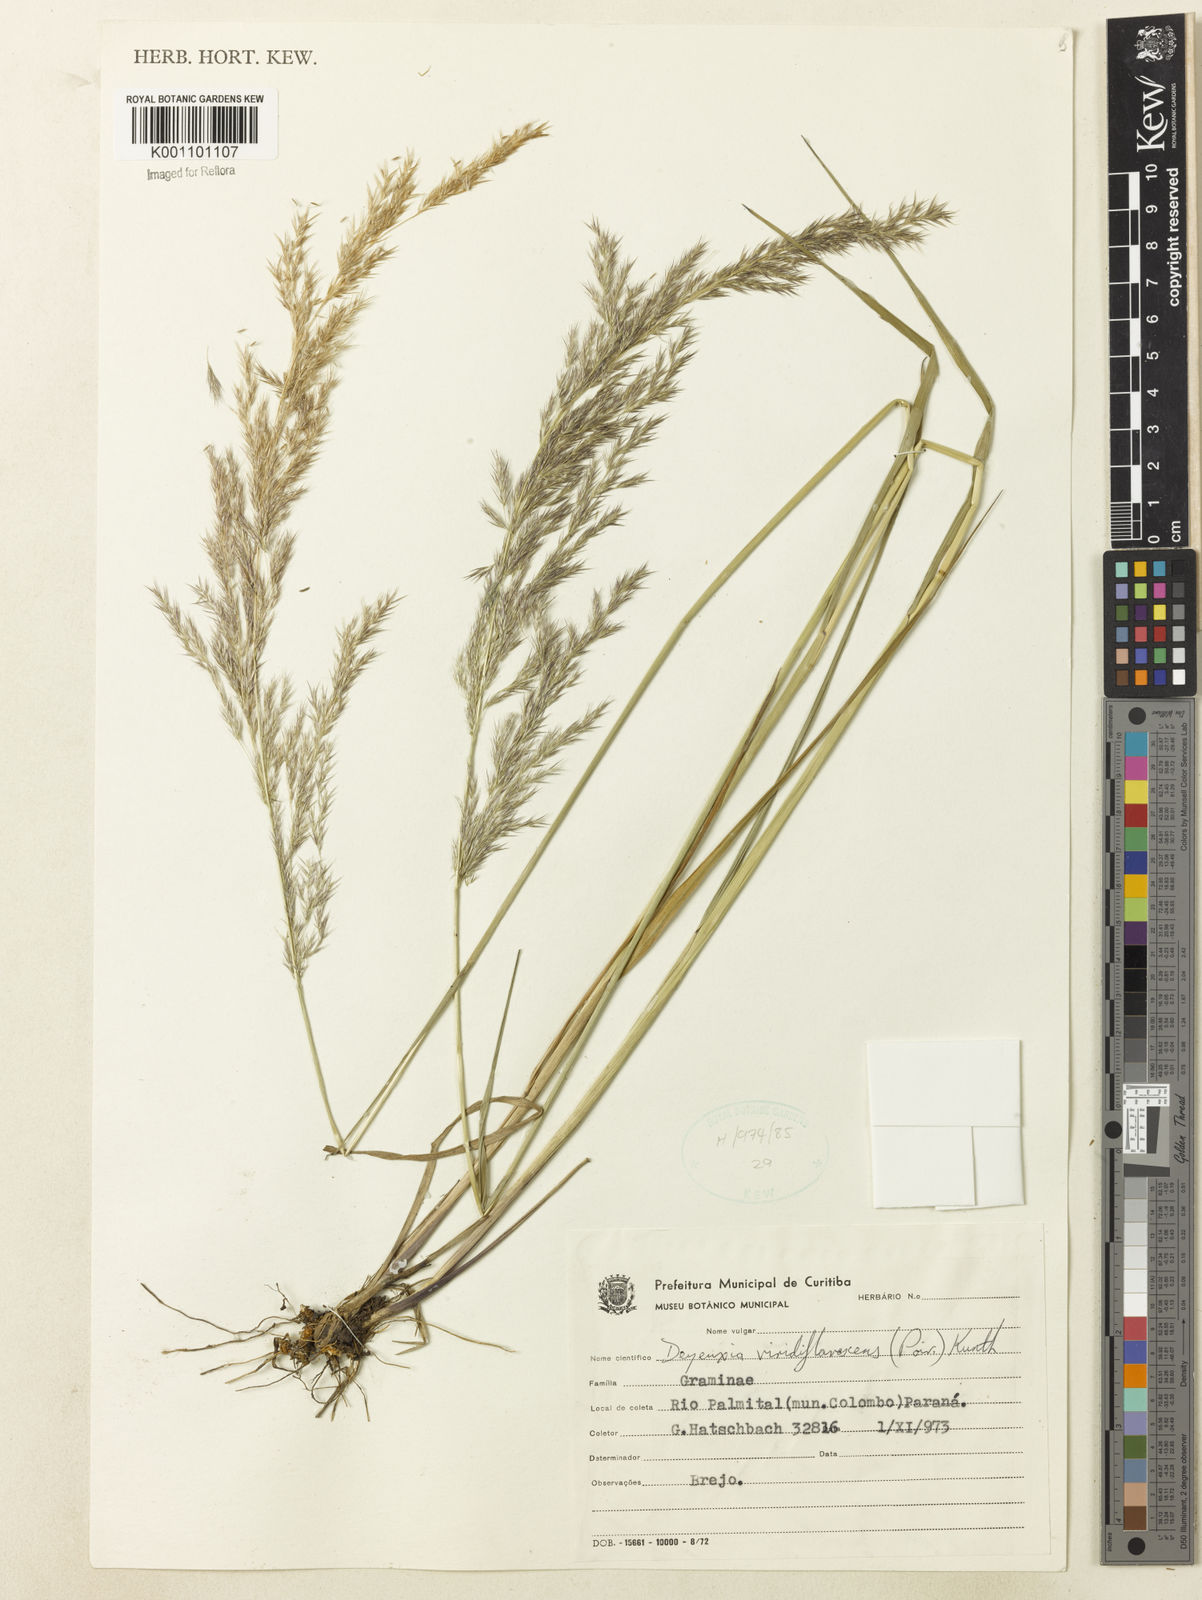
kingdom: Plantae
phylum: Tracheophyta
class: Liliopsida
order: Poales
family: Poaceae
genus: Cinnagrostis
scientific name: Cinnagrostis viridiflavescens
